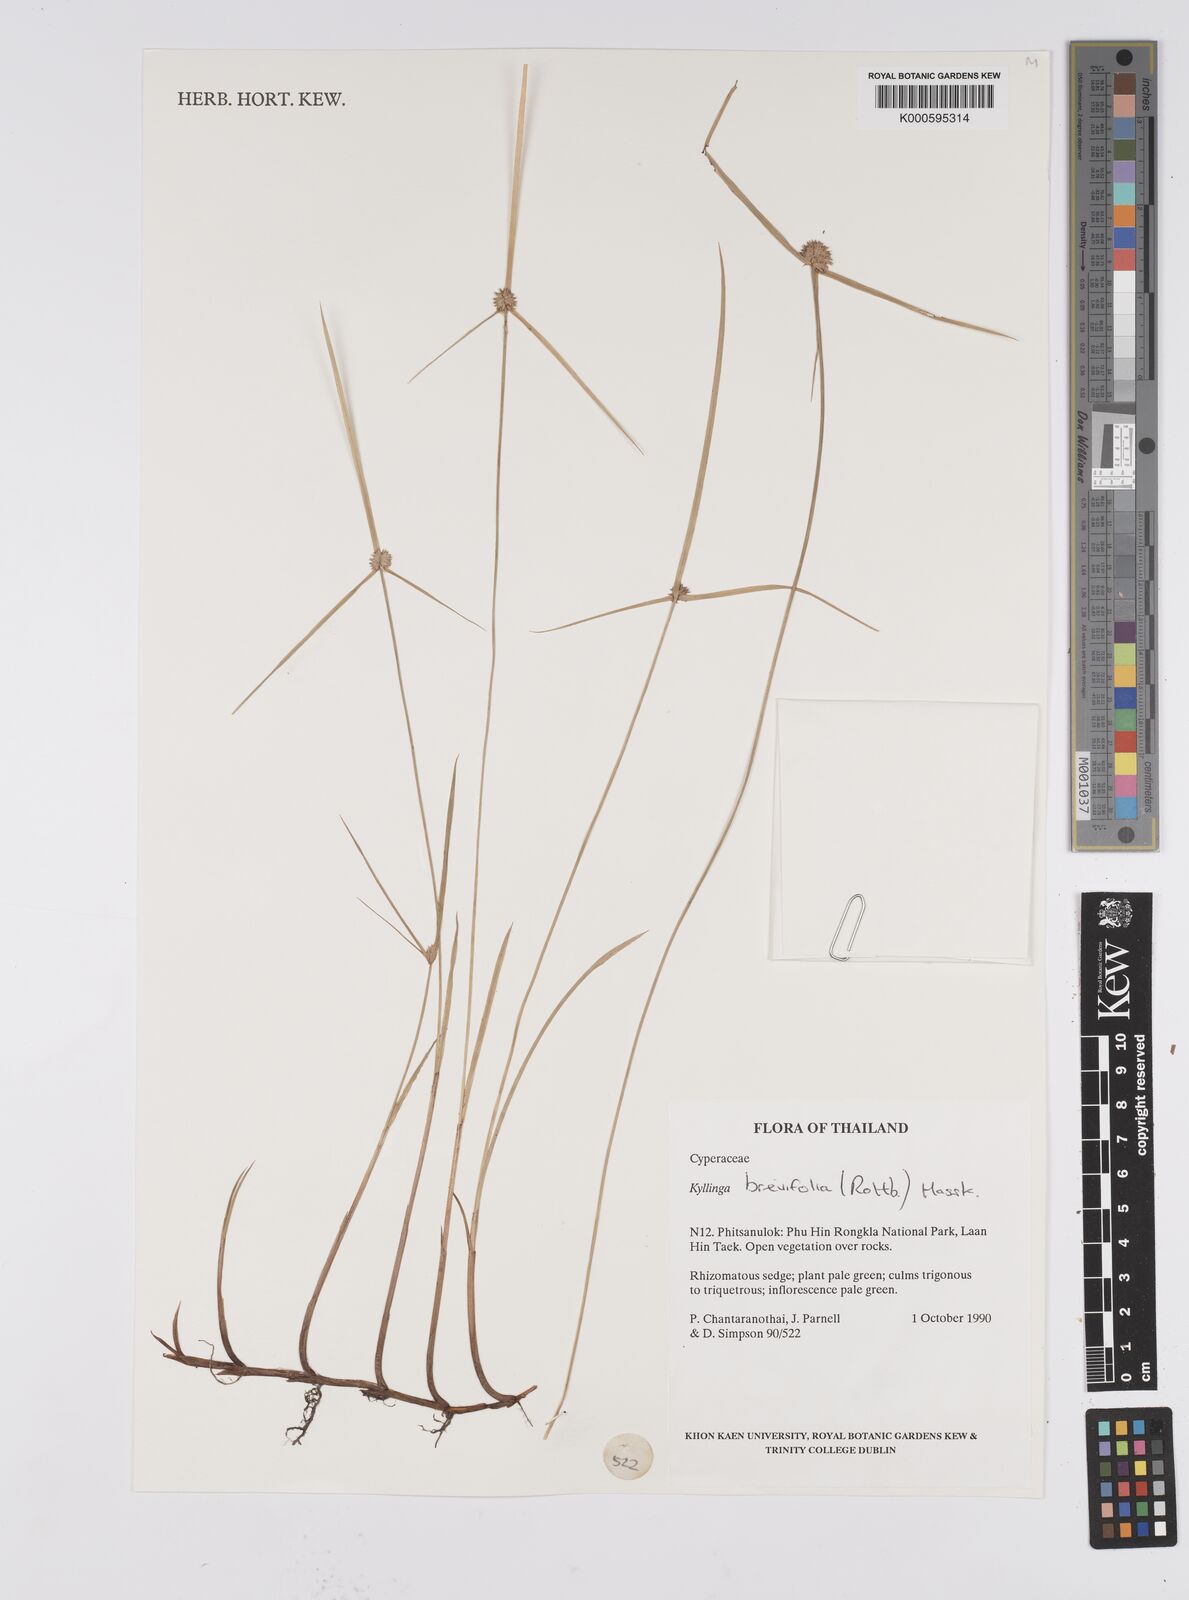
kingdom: Plantae
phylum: Tracheophyta
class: Liliopsida
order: Poales
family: Cyperaceae
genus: Cyperus
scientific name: Cyperus brevifolius
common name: Globe kyllinga
